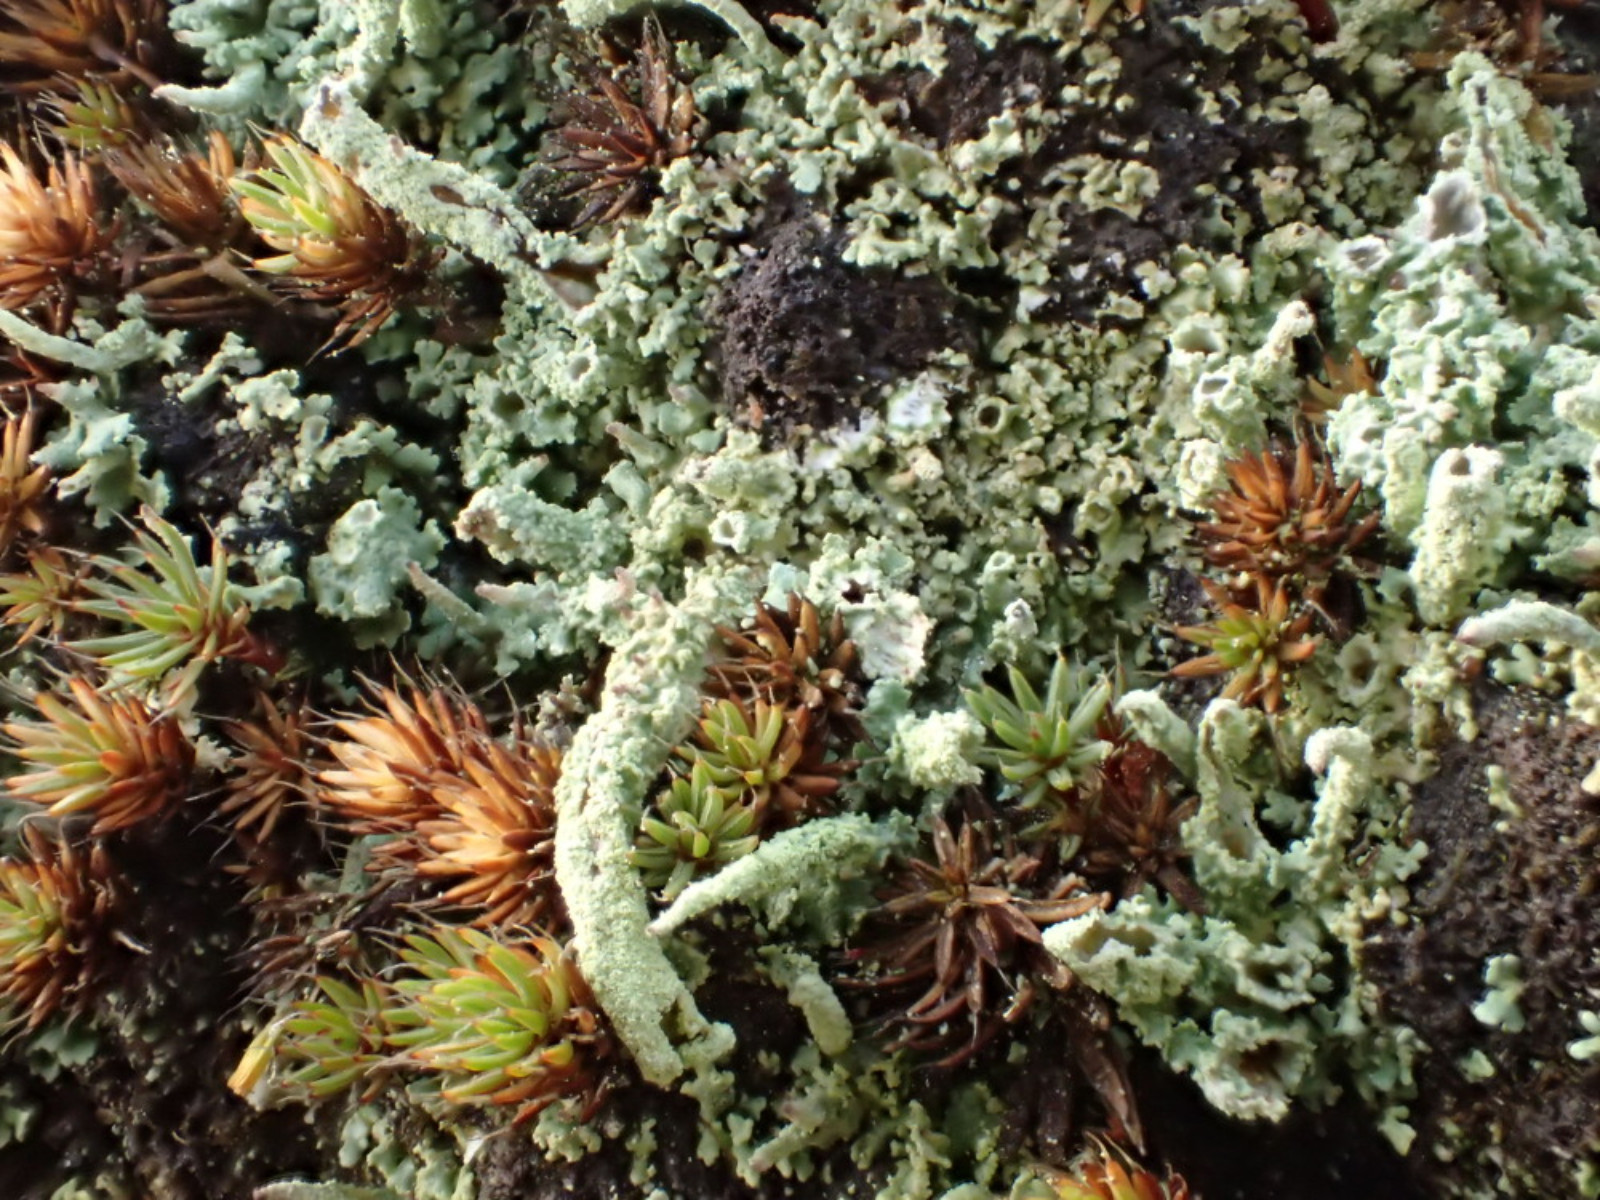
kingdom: Fungi
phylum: Ascomycota
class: Lecanoromycetes
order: Lecanorales
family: Cladoniaceae
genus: Cladonia
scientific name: Cladonia glauca
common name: grågrøn bægerlav
